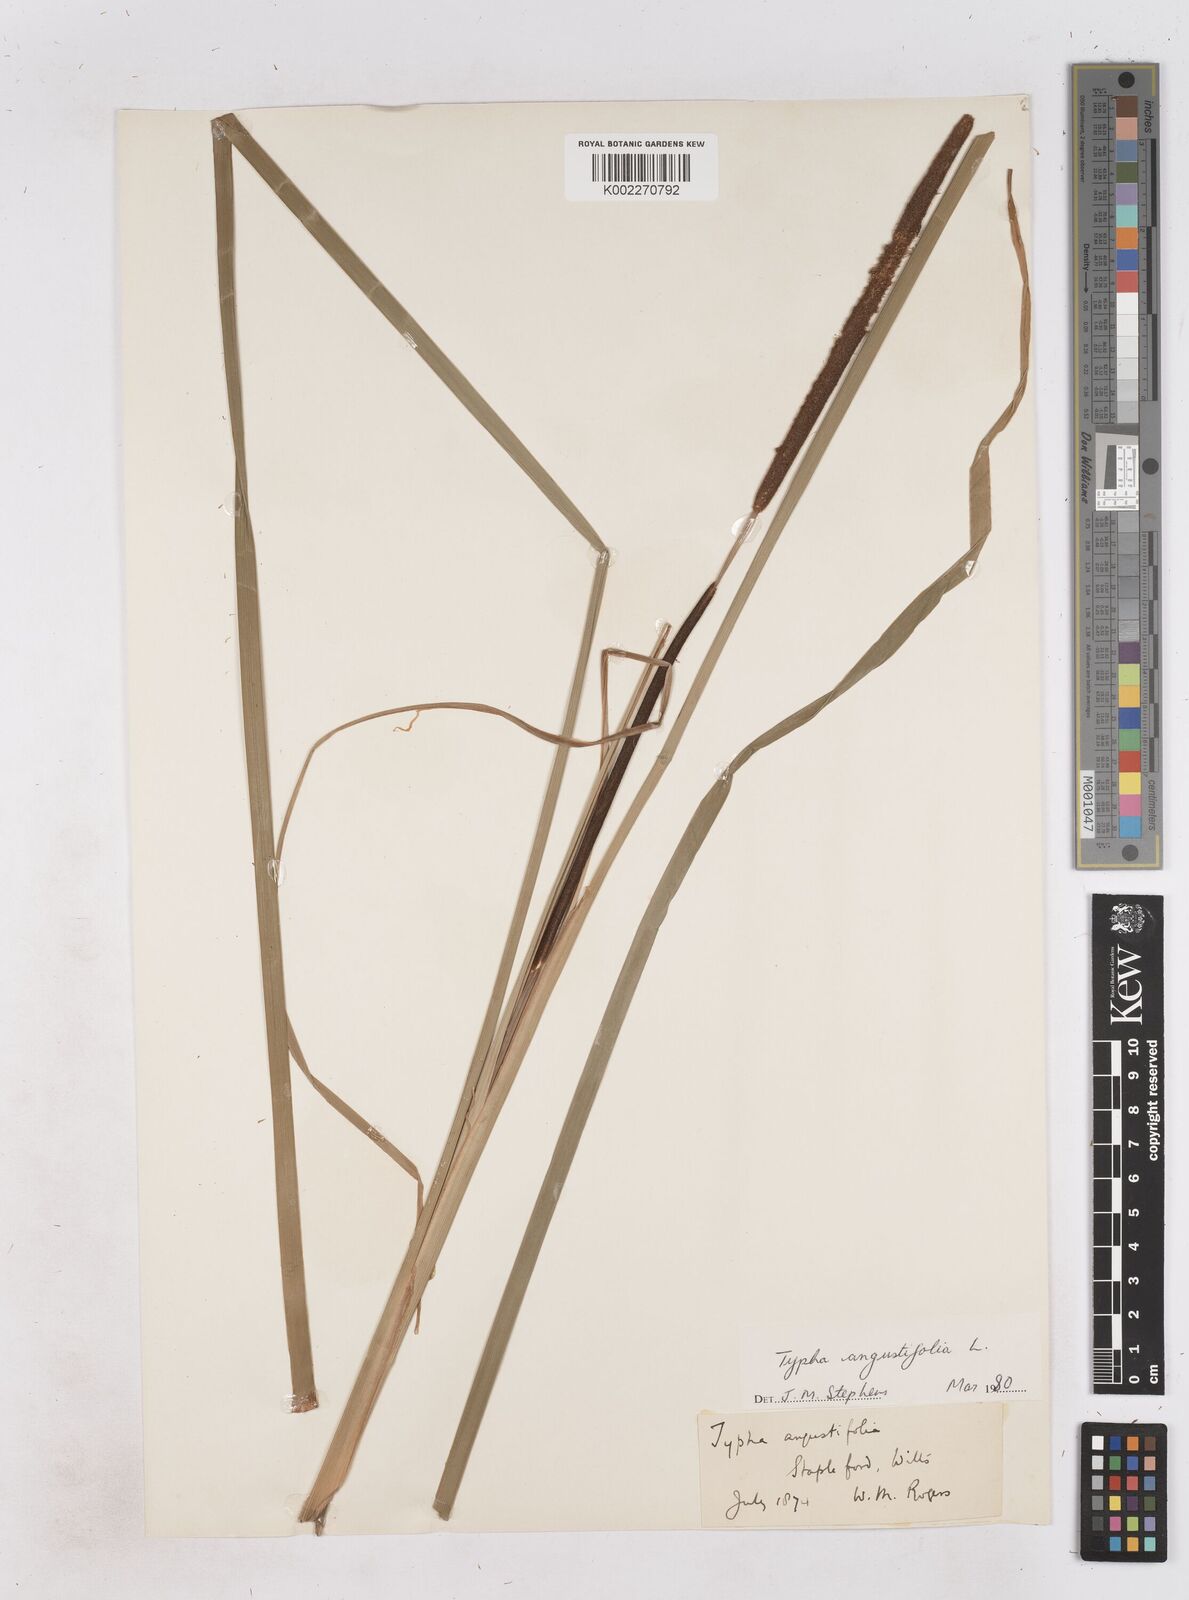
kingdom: Plantae
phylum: Tracheophyta
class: Liliopsida
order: Poales
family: Typhaceae
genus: Typha
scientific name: Typha angustifolia
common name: Lesser bulrush
